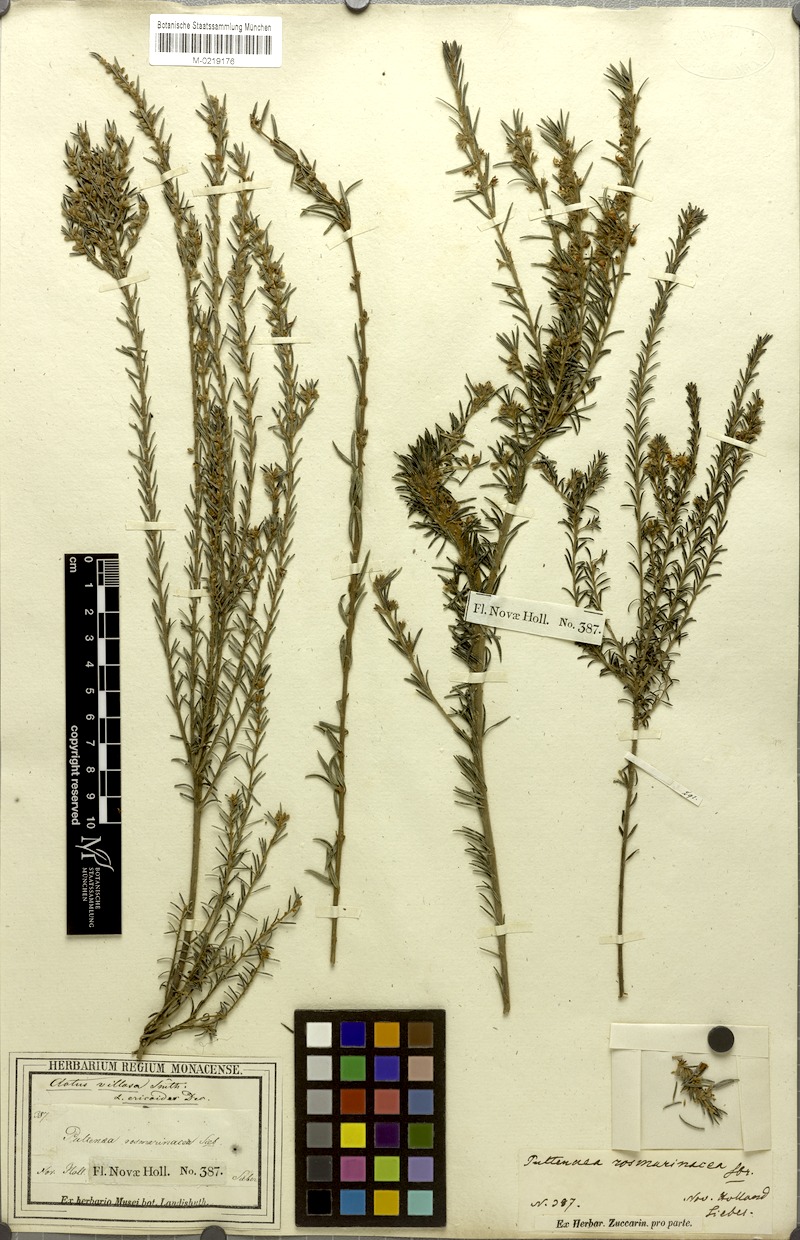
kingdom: Plantae
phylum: Tracheophyta
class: Magnoliopsida
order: Fabales
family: Fabaceae
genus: Aotus
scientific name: Aotus ericoides
